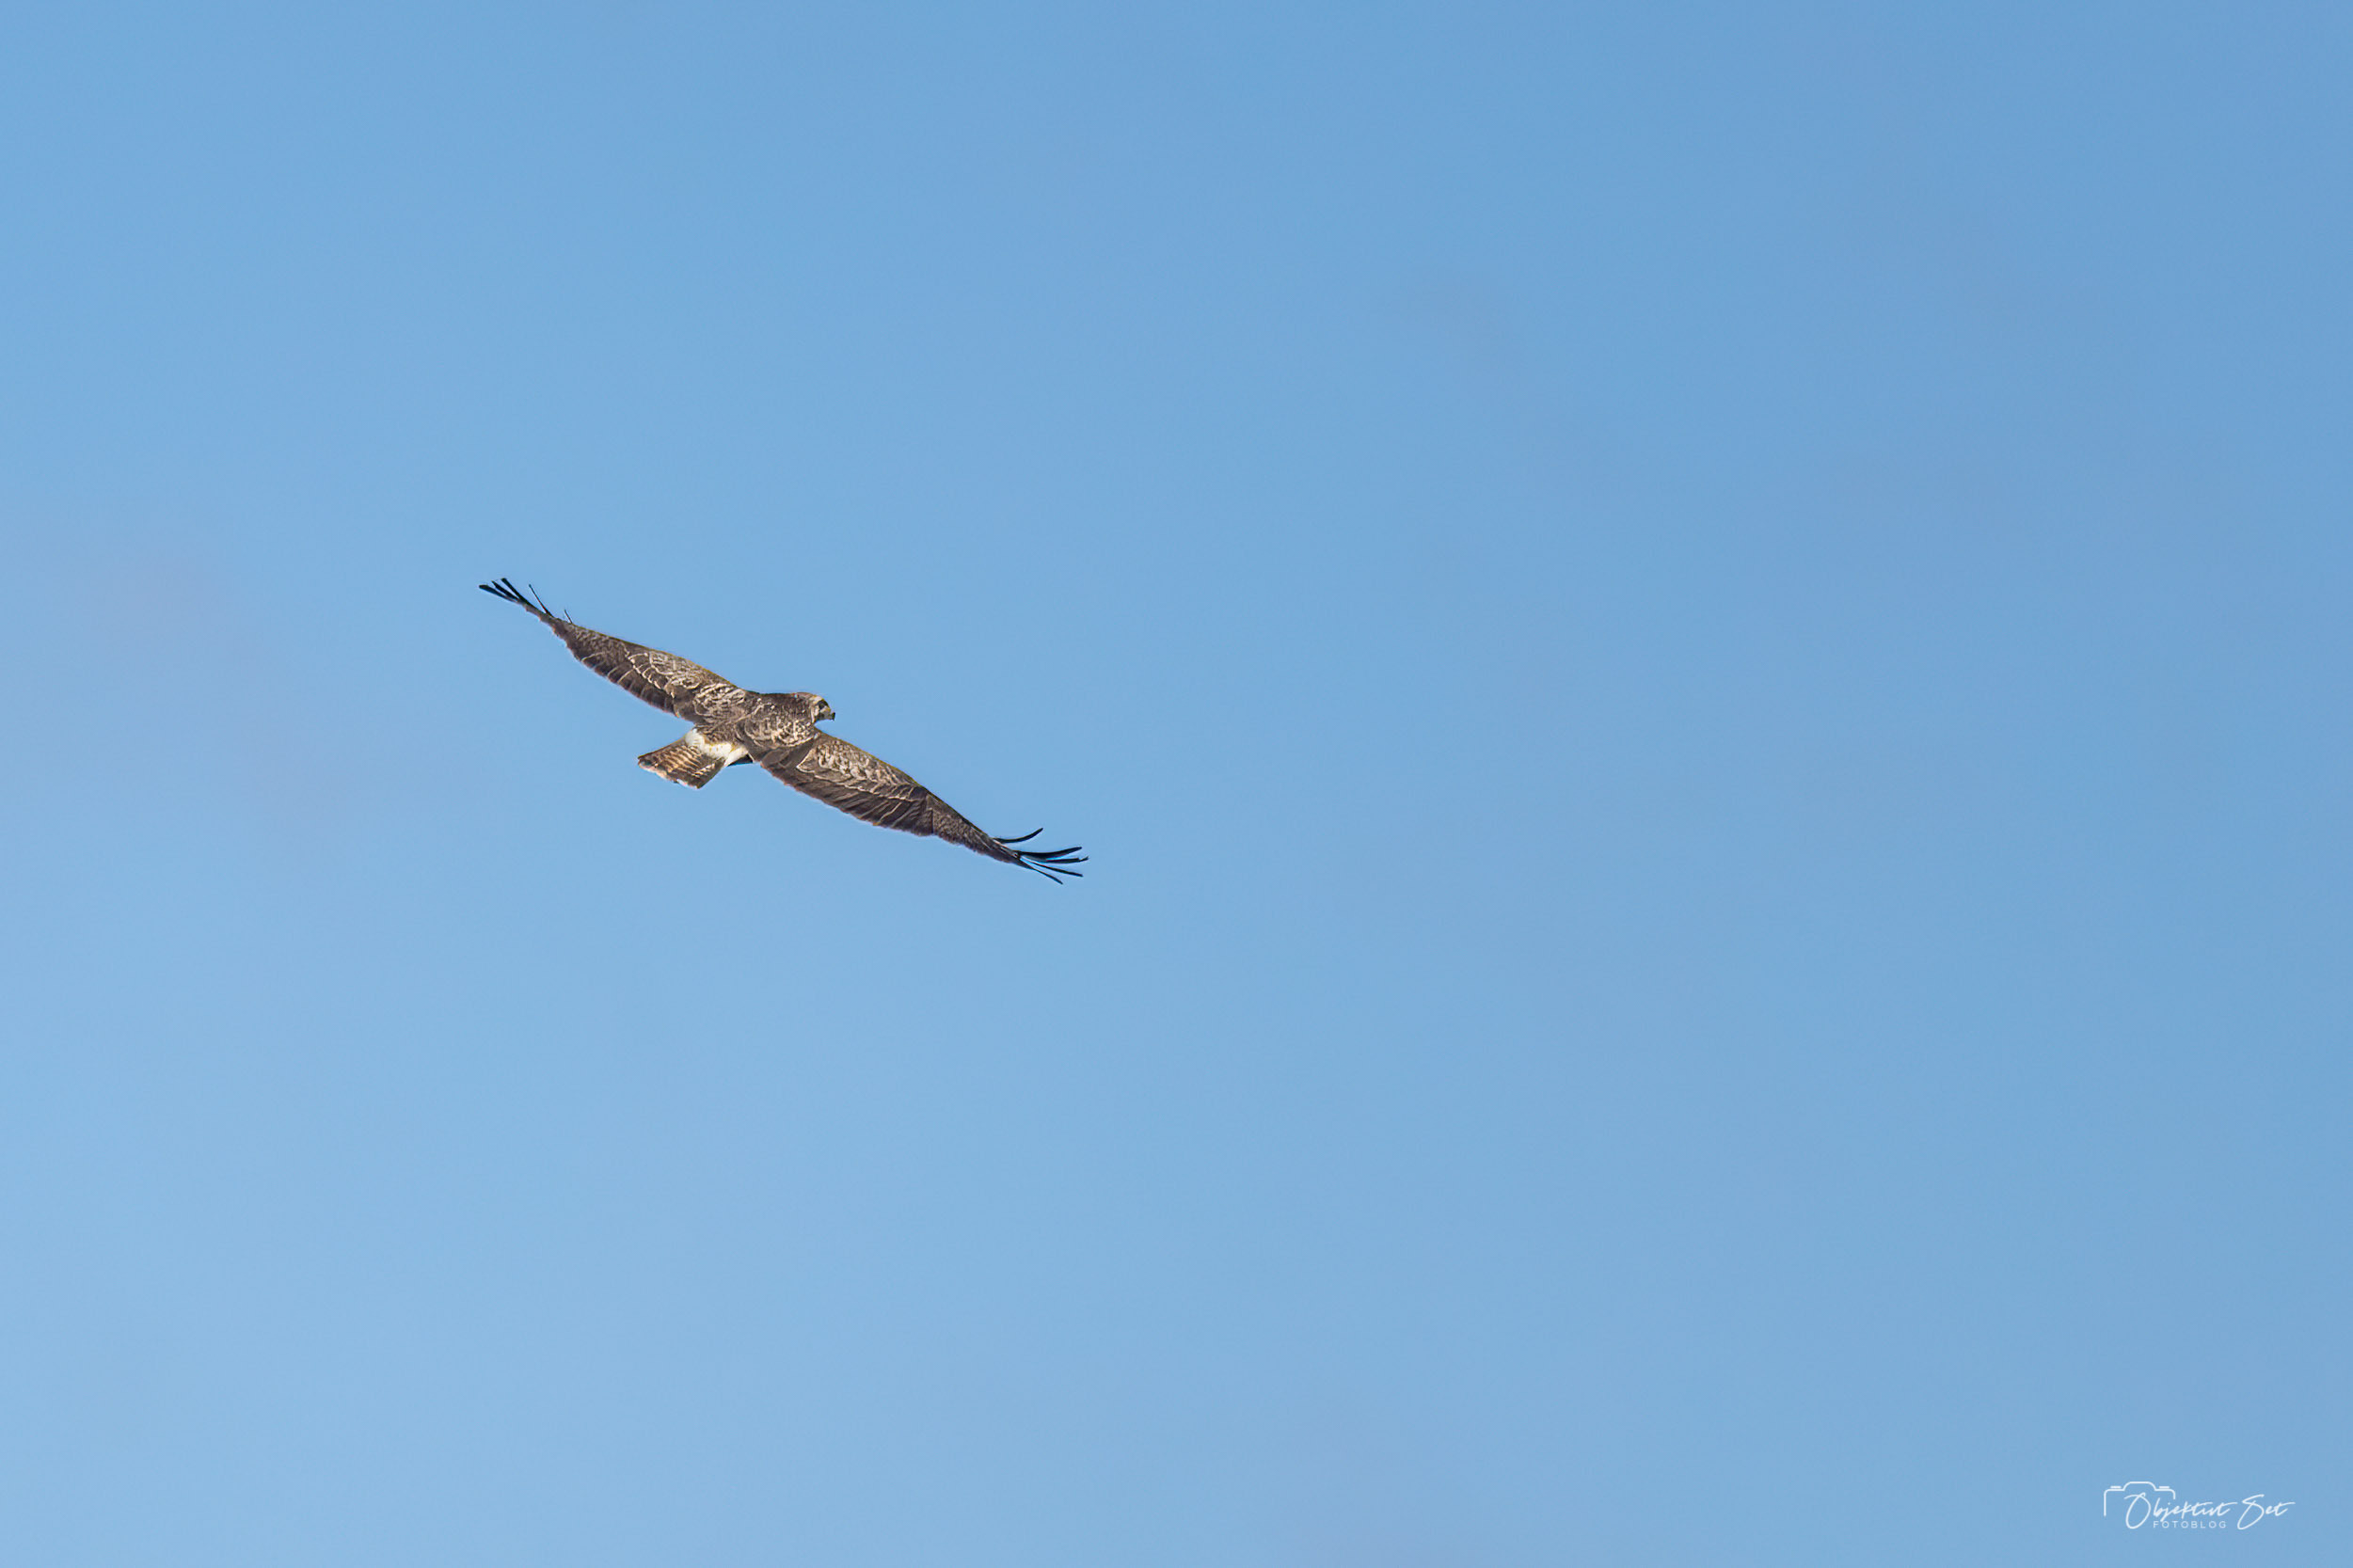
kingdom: Animalia
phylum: Chordata
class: Aves
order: Accipitriformes
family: Accipitridae
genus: Buteo
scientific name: Buteo buteo
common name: Musvåge
